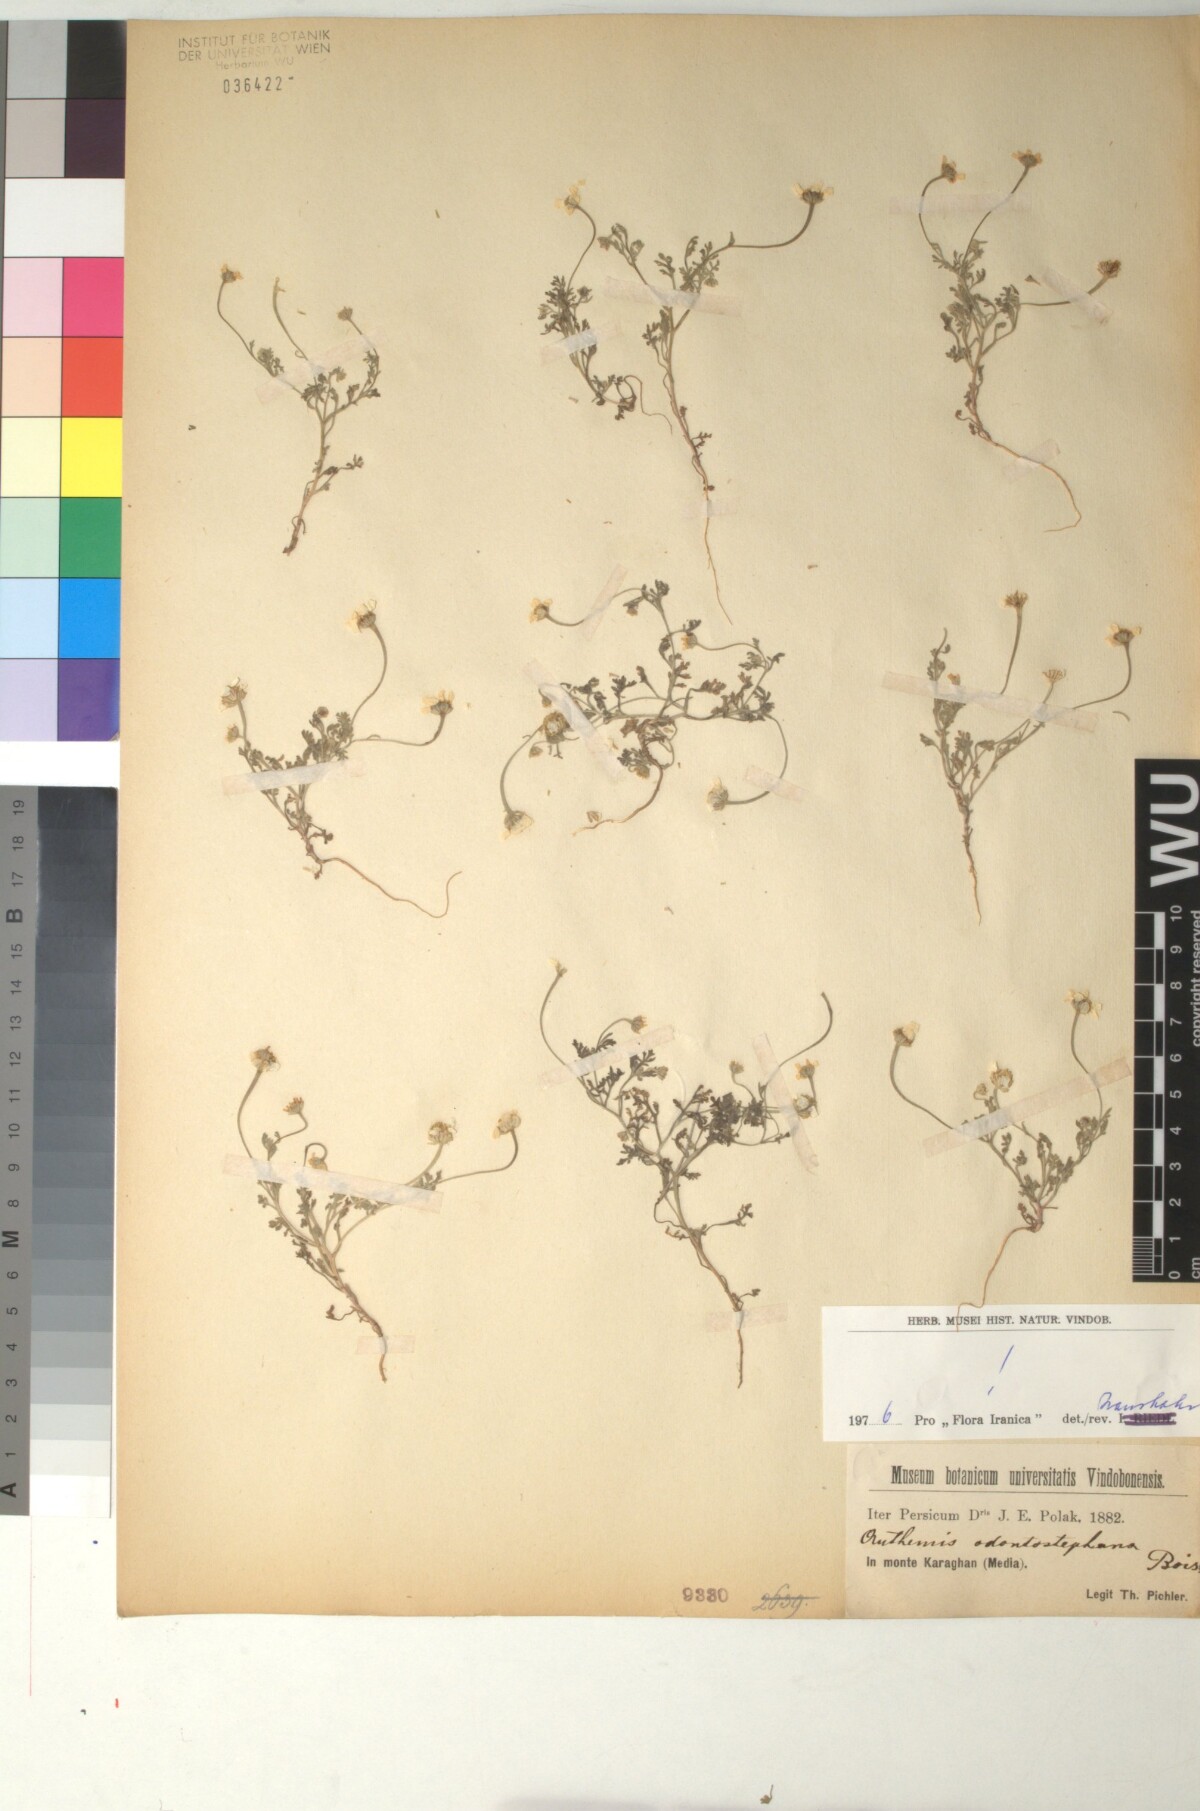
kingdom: Plantae
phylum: Tracheophyta
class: Magnoliopsida
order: Asterales
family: Asteraceae
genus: Anthemis
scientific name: Anthemis odontostephana
